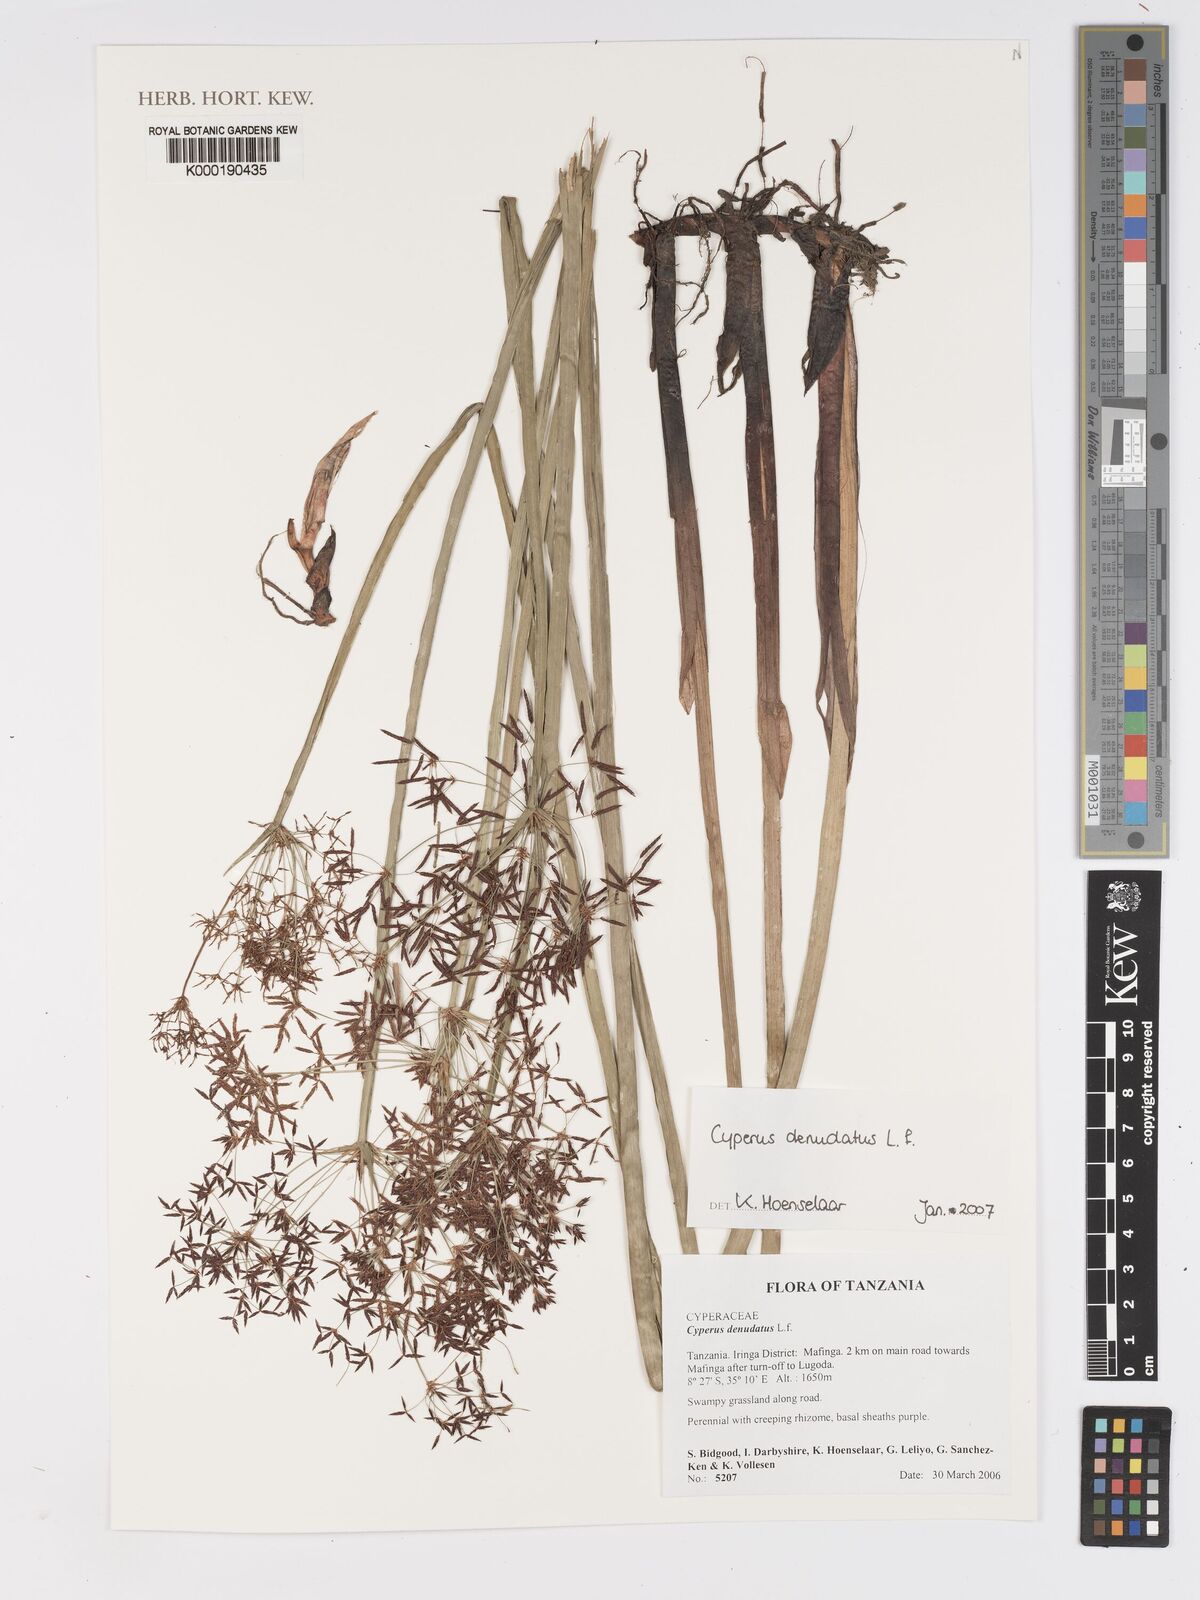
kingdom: Plantae
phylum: Tracheophyta
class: Liliopsida
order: Poales
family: Cyperaceae
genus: Cyperus
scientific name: Cyperus denudatus
